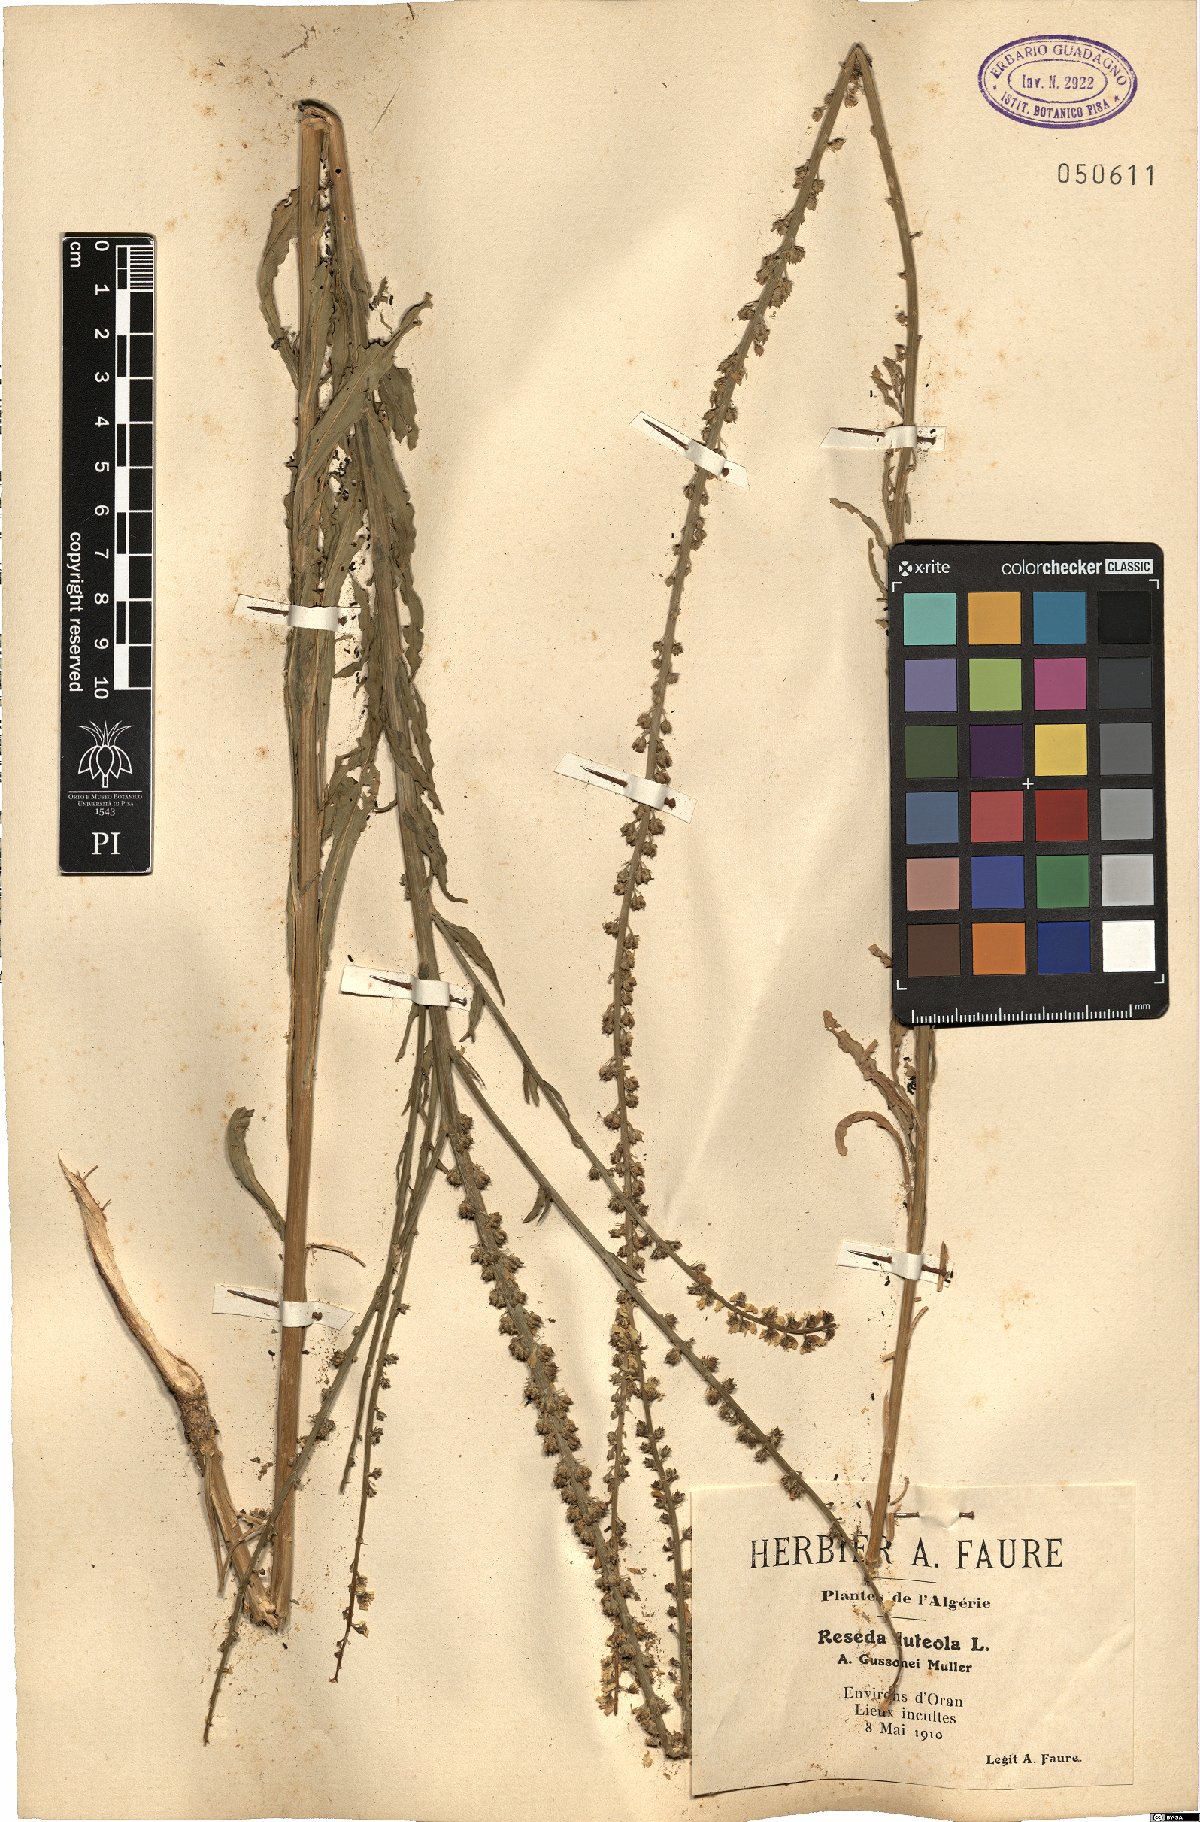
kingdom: Plantae
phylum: Tracheophyta
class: Magnoliopsida
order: Brassicales
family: Resedaceae
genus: Reseda
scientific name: Reseda luteola
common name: Weld
